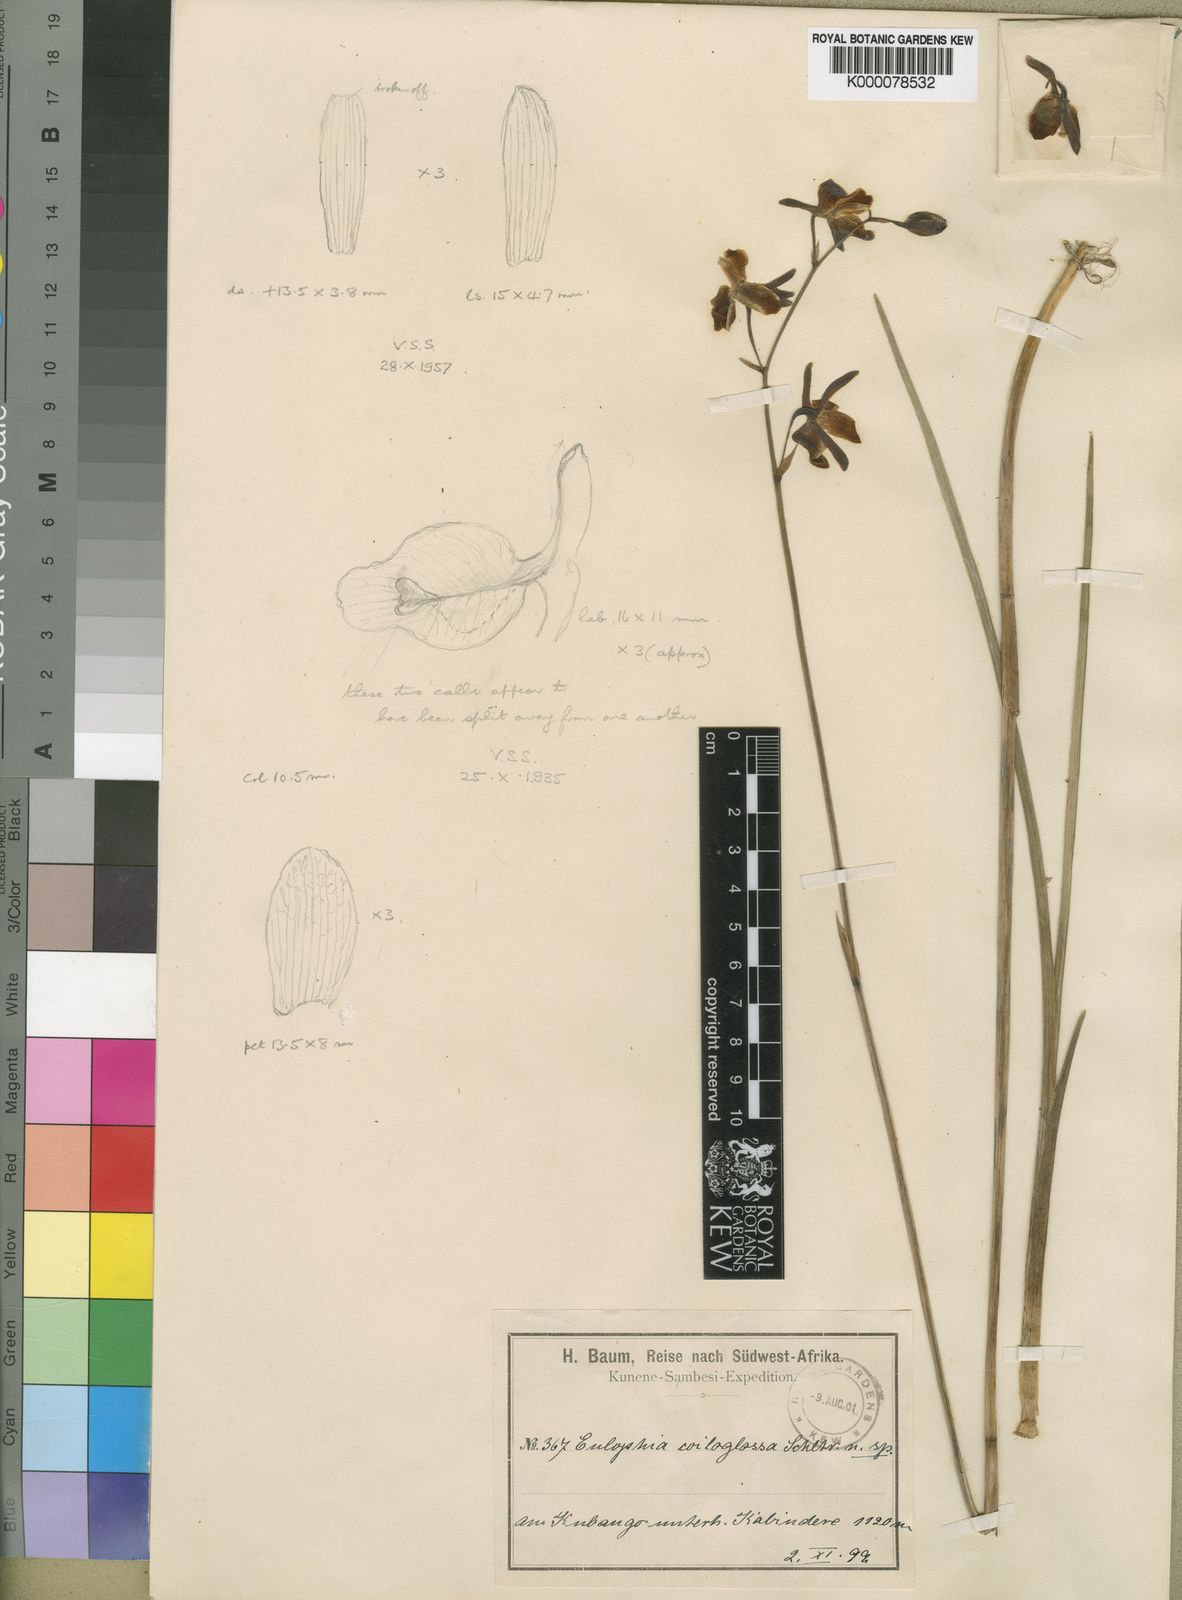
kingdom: Plantae
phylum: Tracheophyta
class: Liliopsida
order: Asparagales
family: Orchidaceae
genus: Eulophia
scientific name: Eulophia coeloglossa
